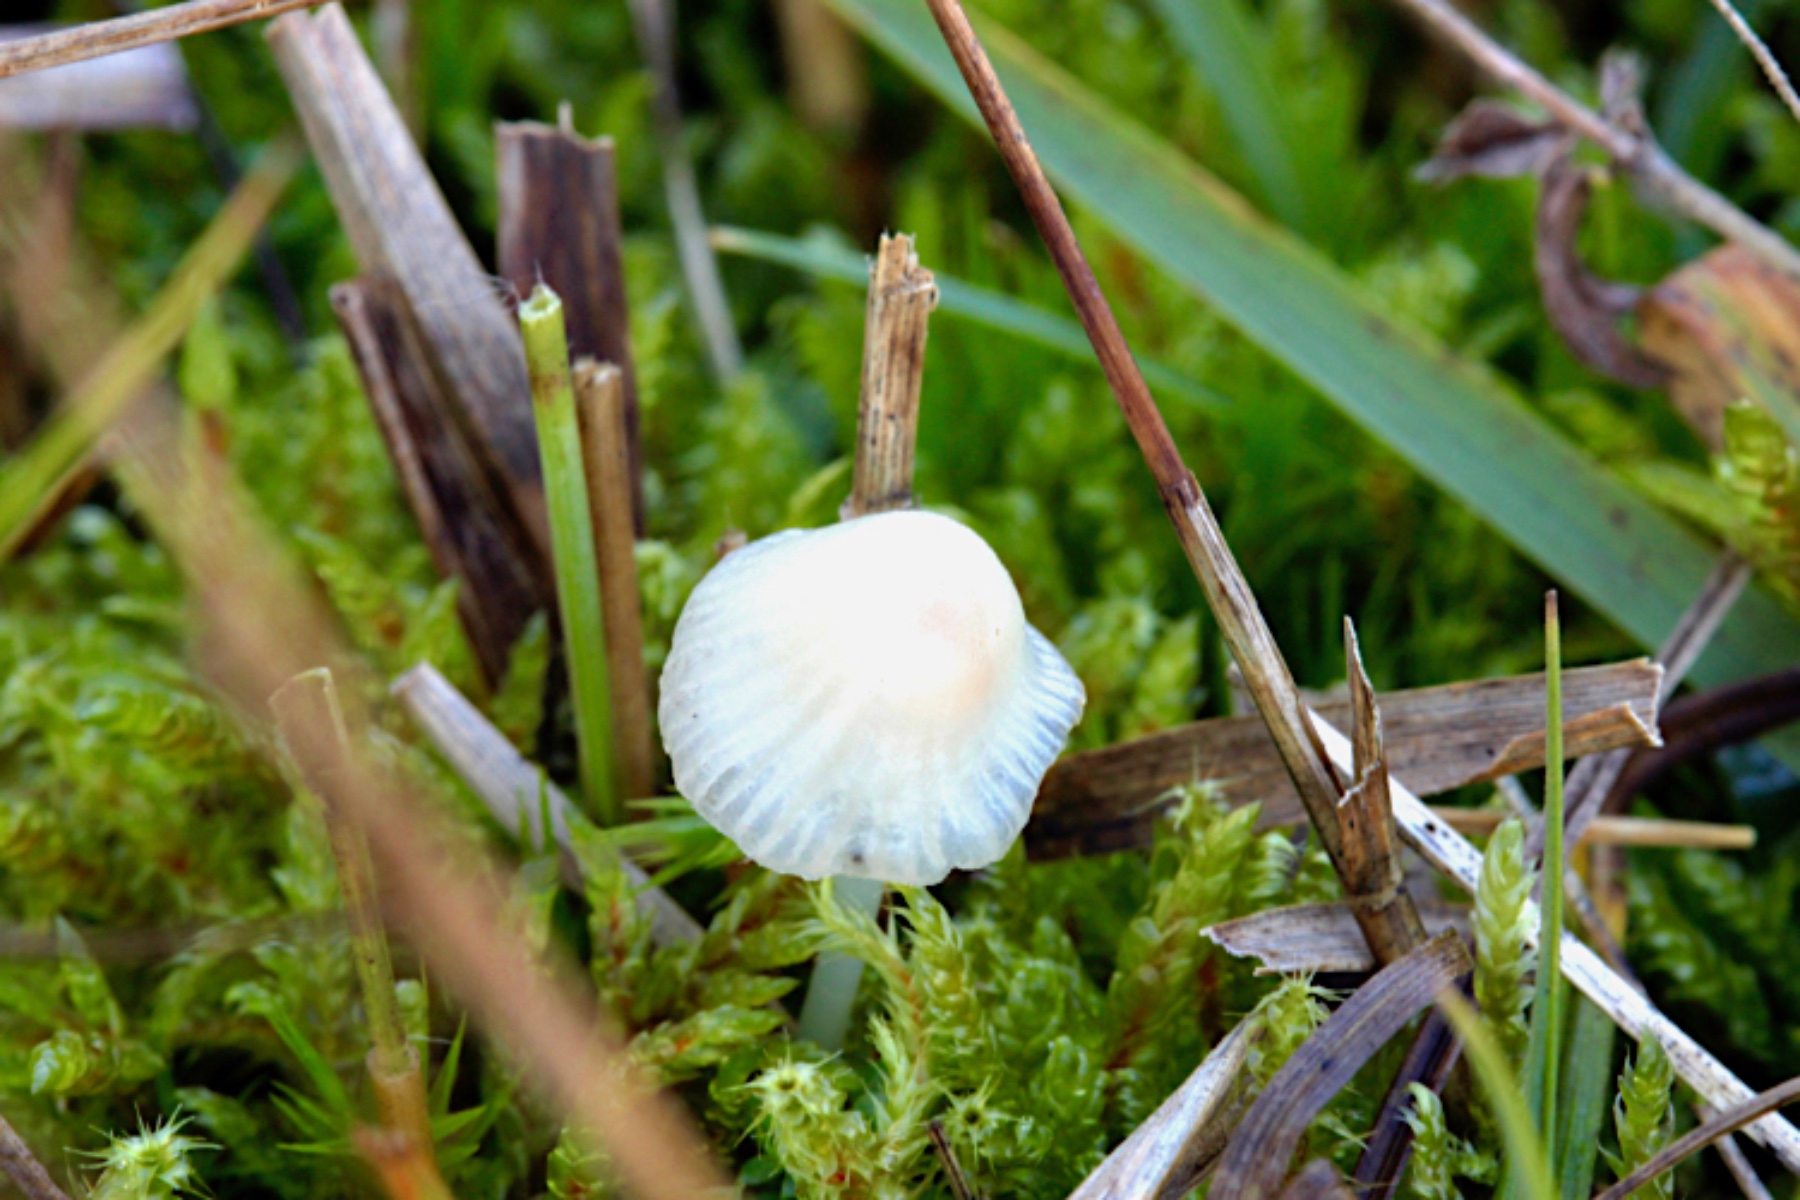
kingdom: Fungi
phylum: Basidiomycota
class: Agaricomycetes
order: Agaricales
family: Mycenaceae
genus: Atheniella
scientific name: Atheniella adonis
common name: rønnerød huesvamp
